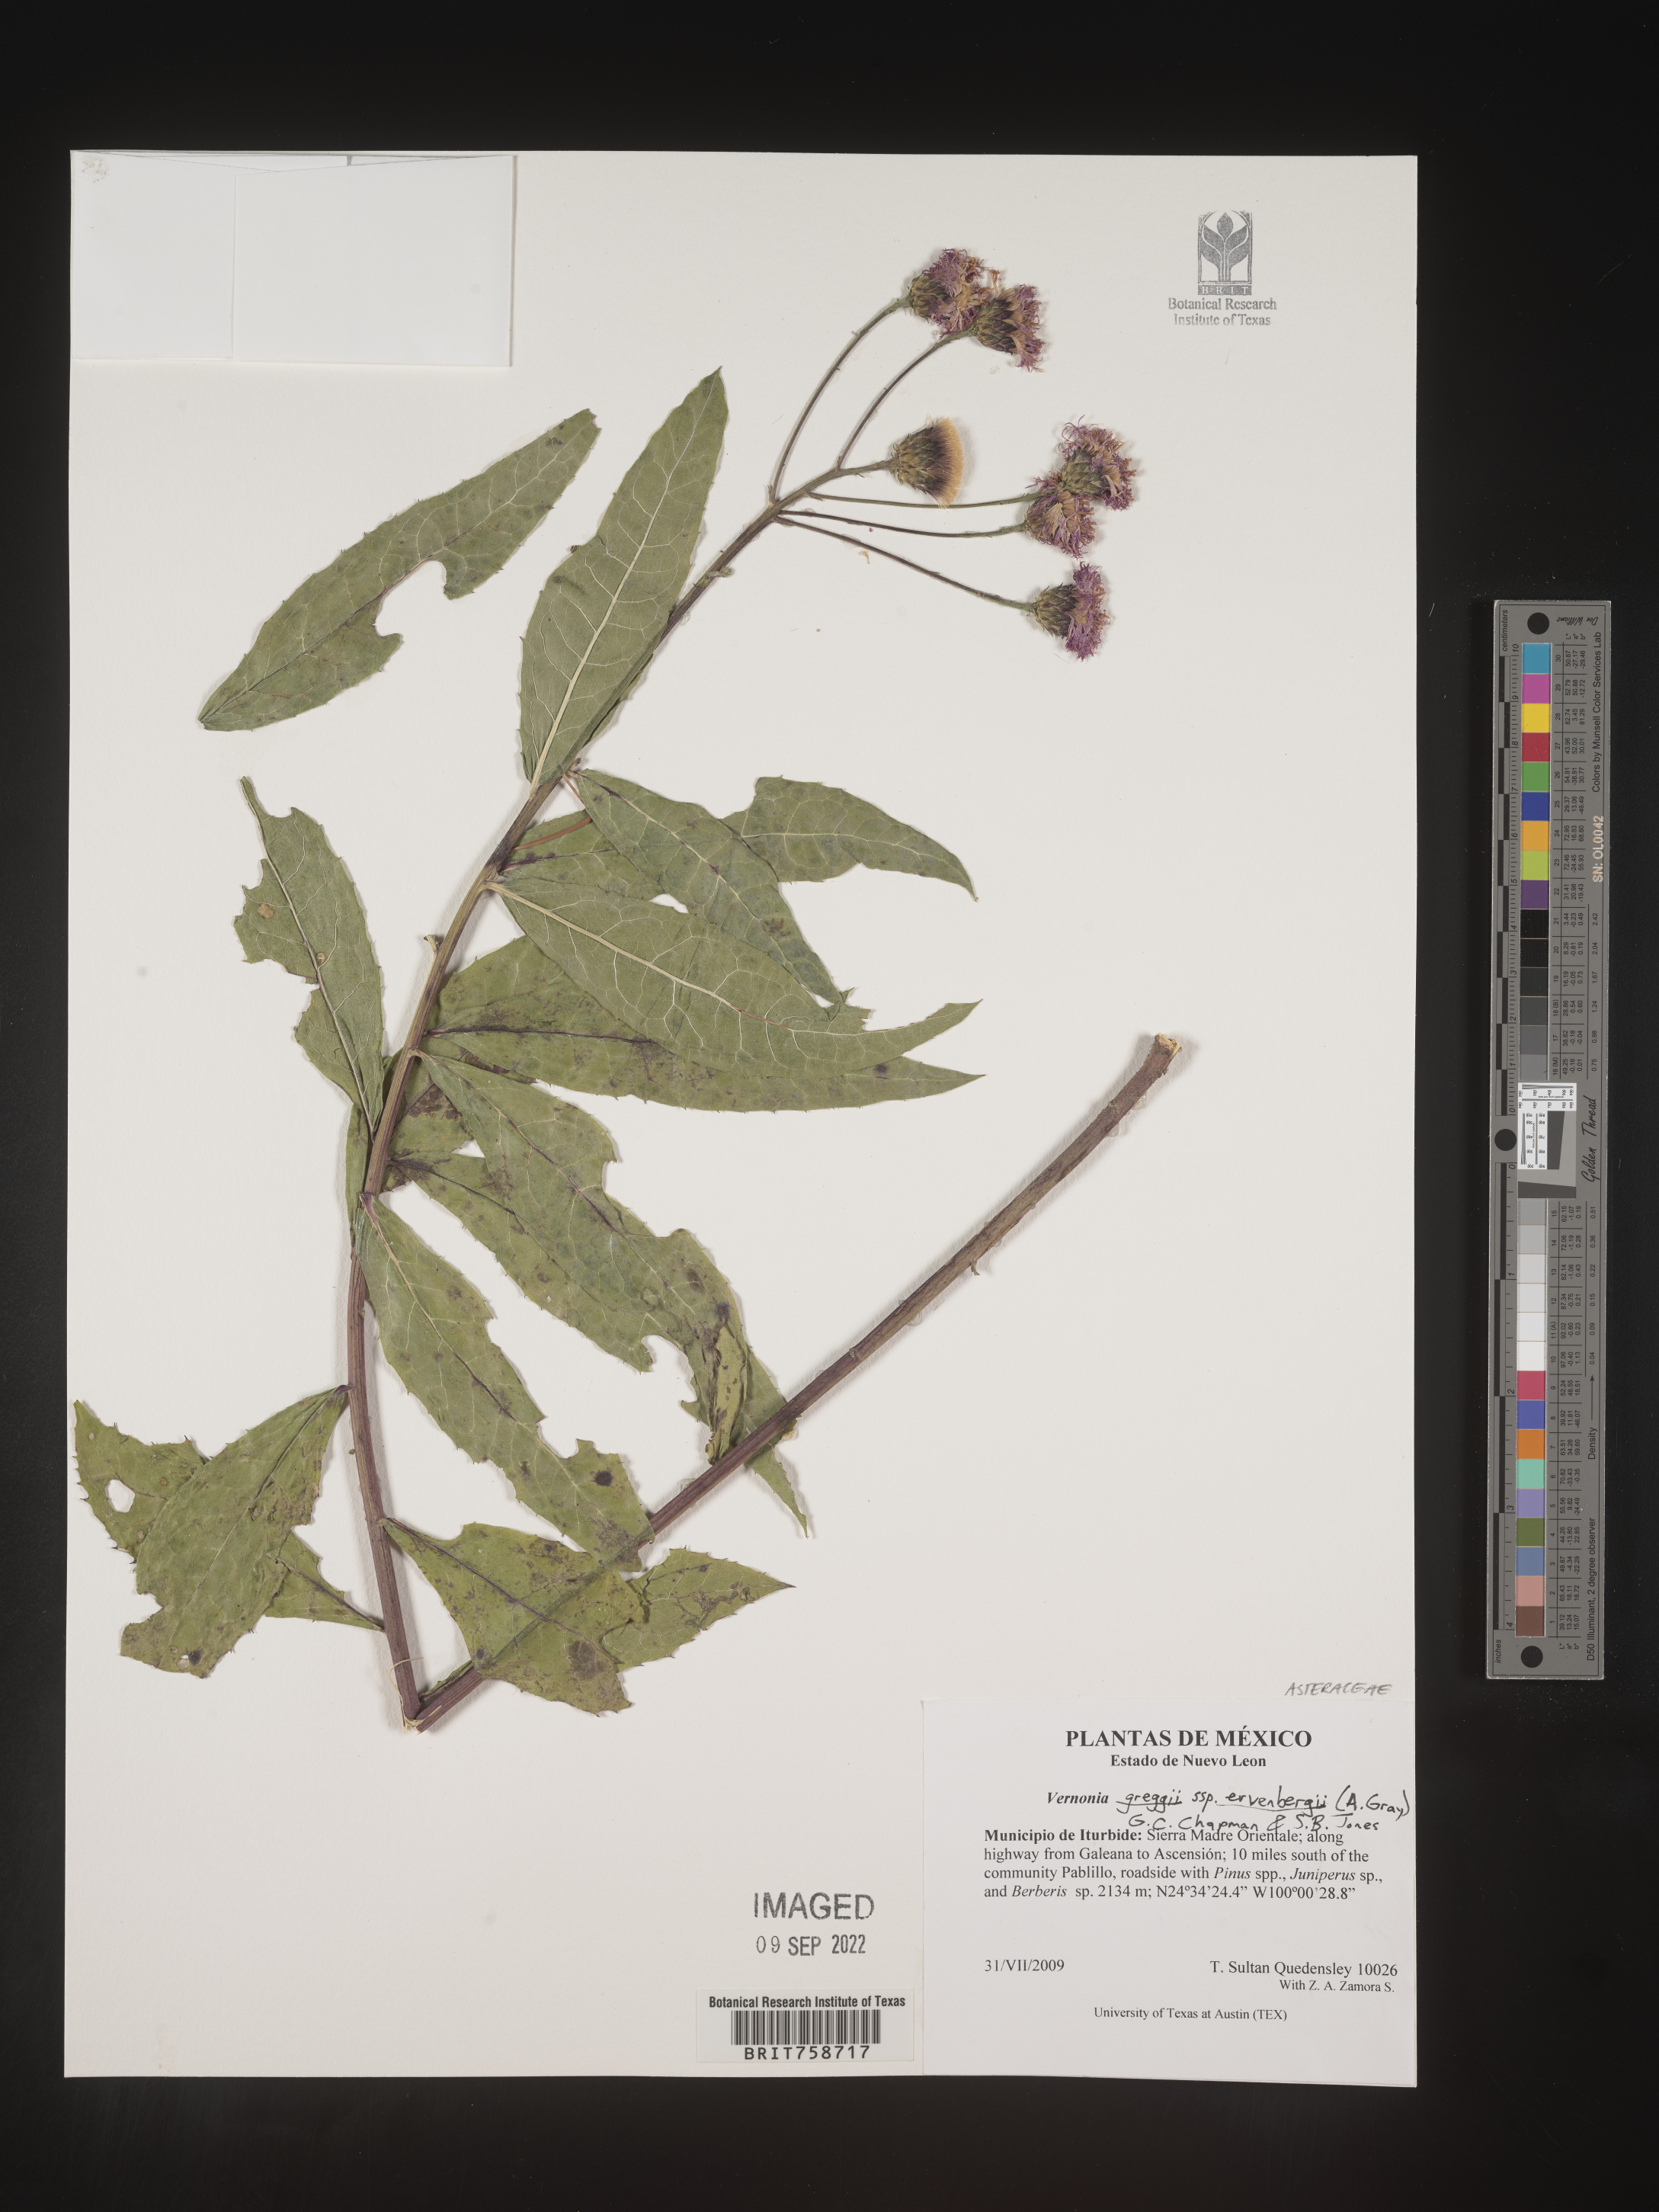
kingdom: Plantae
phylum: Tracheophyta
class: Magnoliopsida
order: Asterales
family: Asteraceae
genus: Vernonia
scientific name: Vernonia
